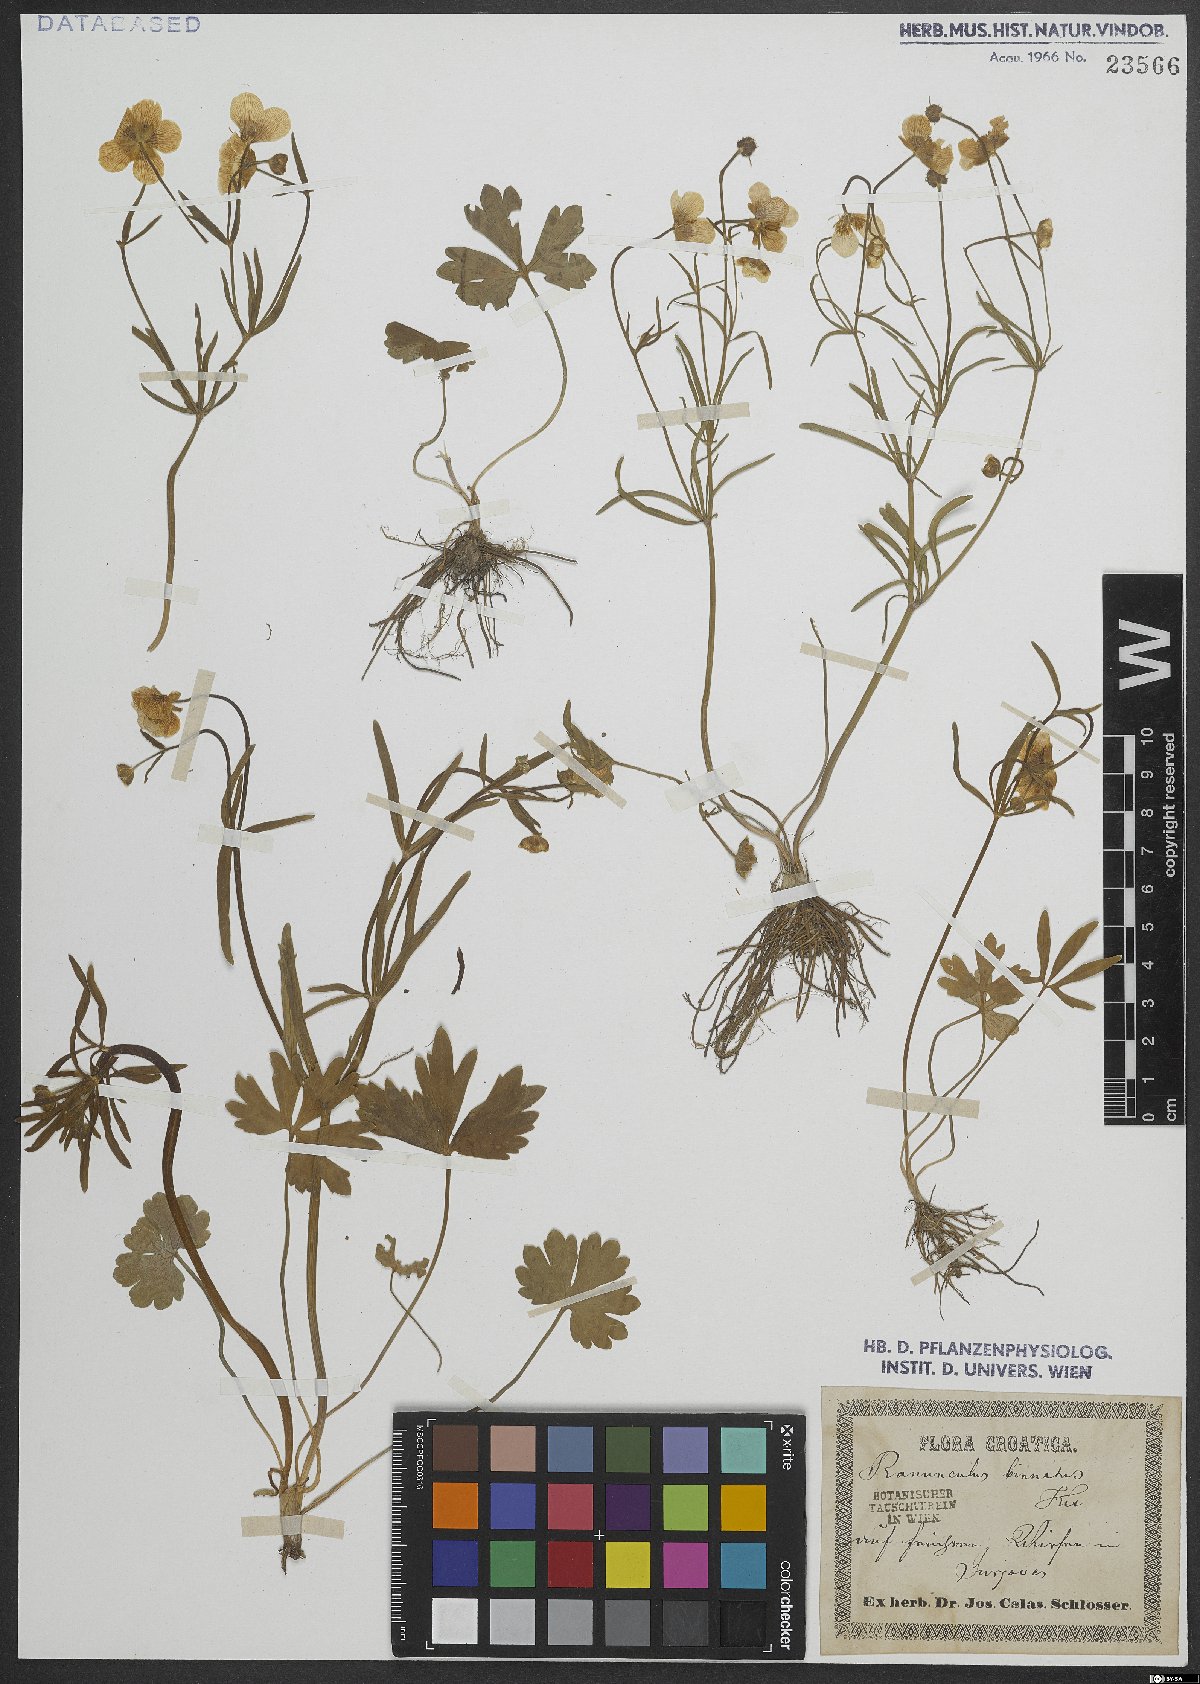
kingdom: Plantae
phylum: Tracheophyta
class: Magnoliopsida
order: Ranunculales
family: Ranunculaceae
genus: Ranunculus
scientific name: Ranunculus binatus
